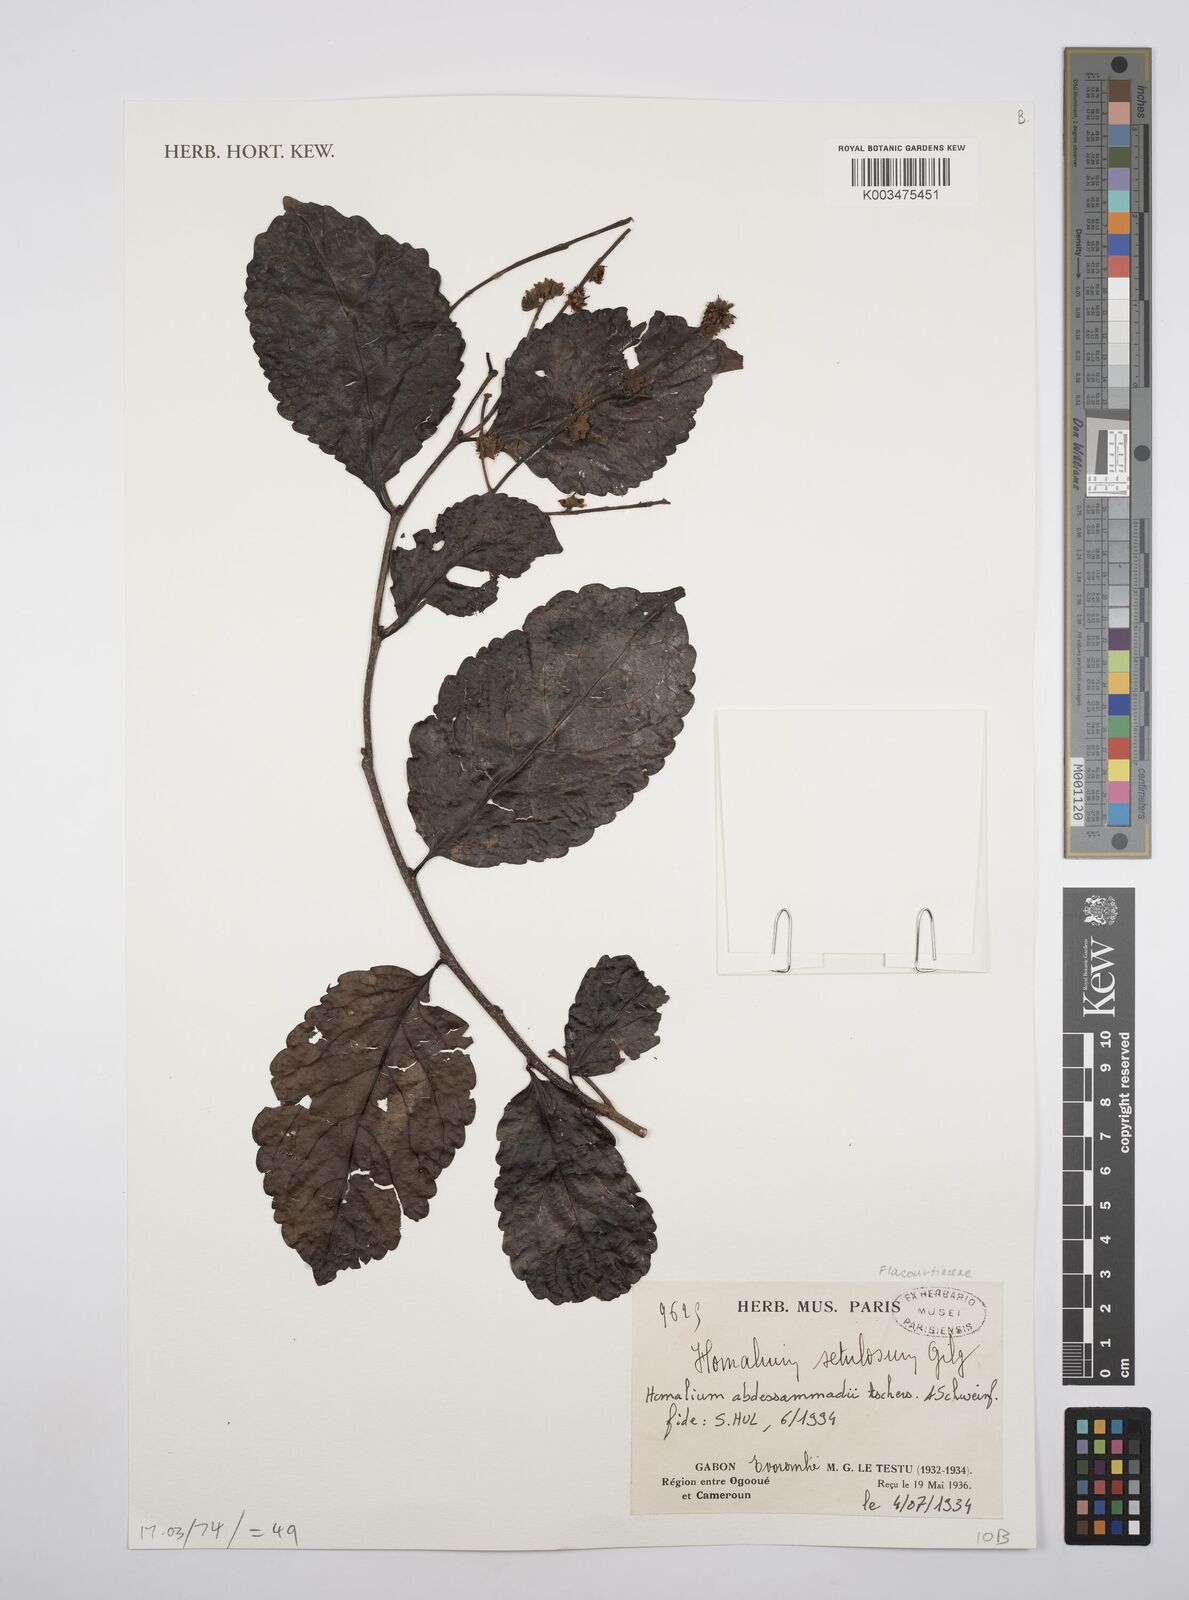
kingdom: Plantae
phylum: Tracheophyta
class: Magnoliopsida
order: Malpighiales
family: Salicaceae
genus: Homalium
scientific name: Homalium abdessammadii
